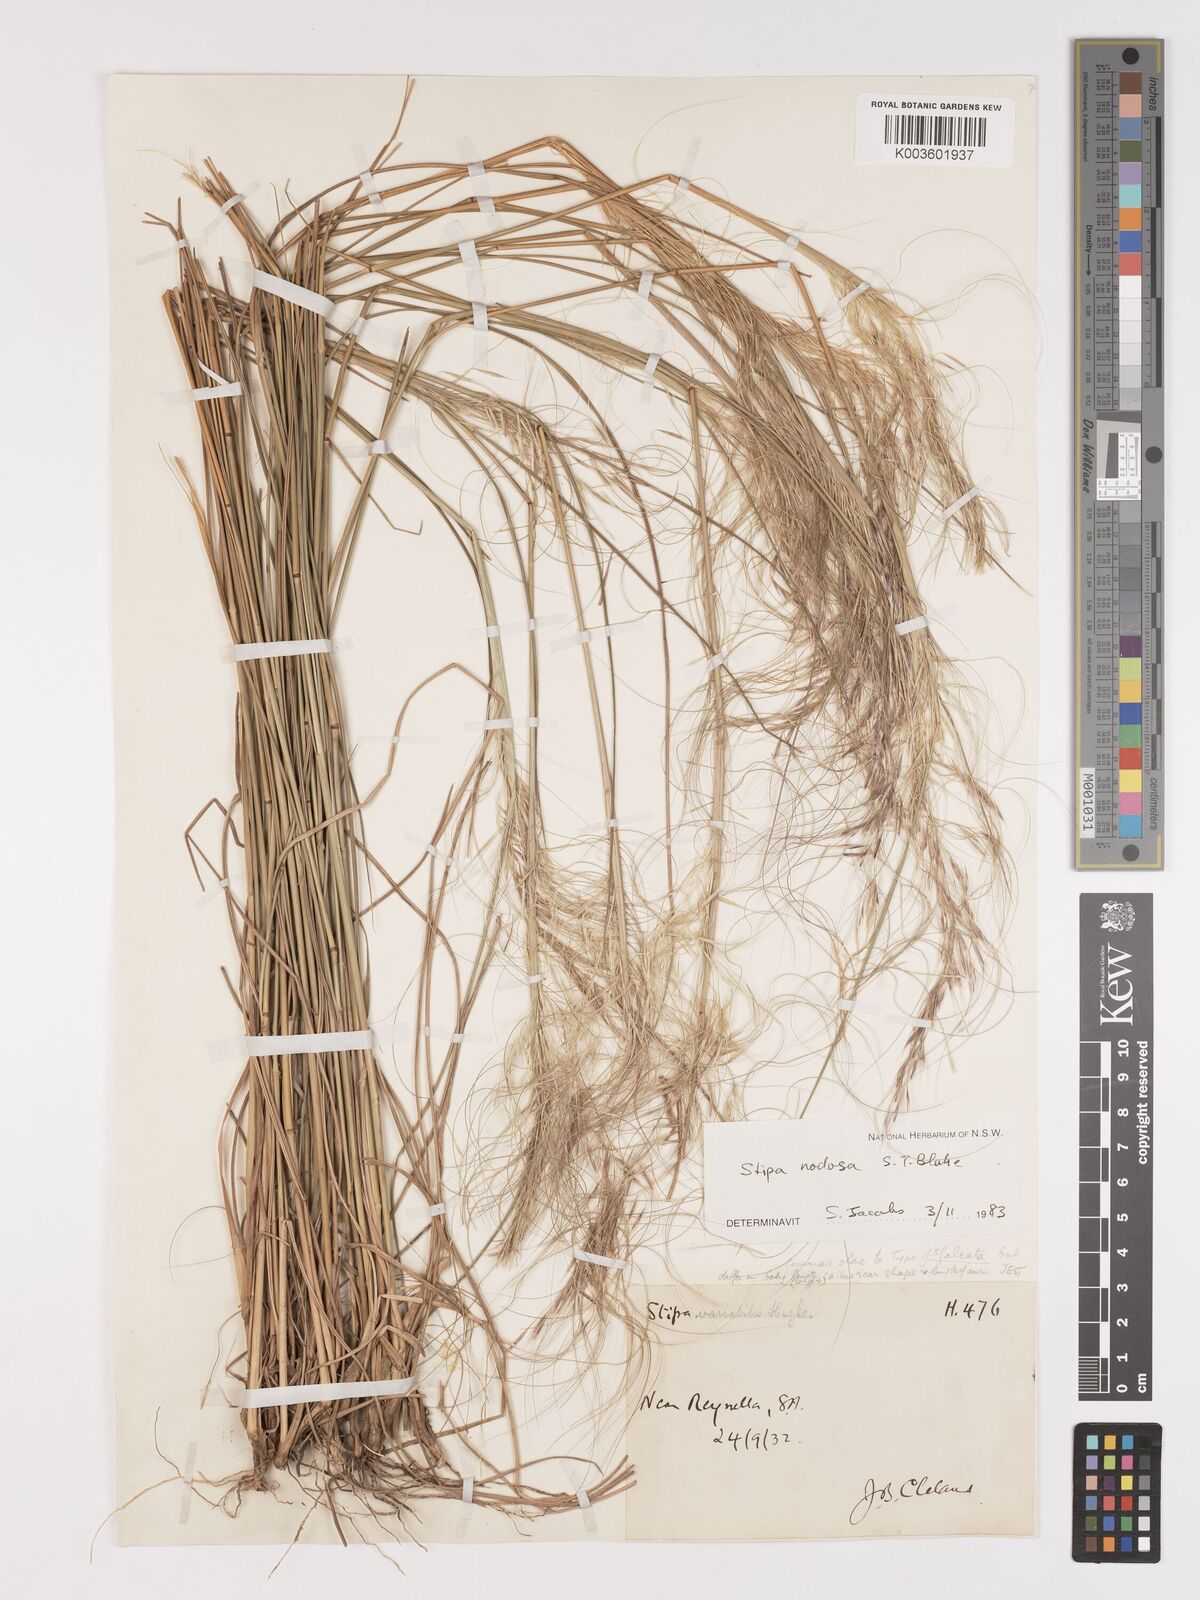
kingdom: Plantae
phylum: Tracheophyta
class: Liliopsida
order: Poales
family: Poaceae
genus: Austrostipa
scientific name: Austrostipa nodosa
